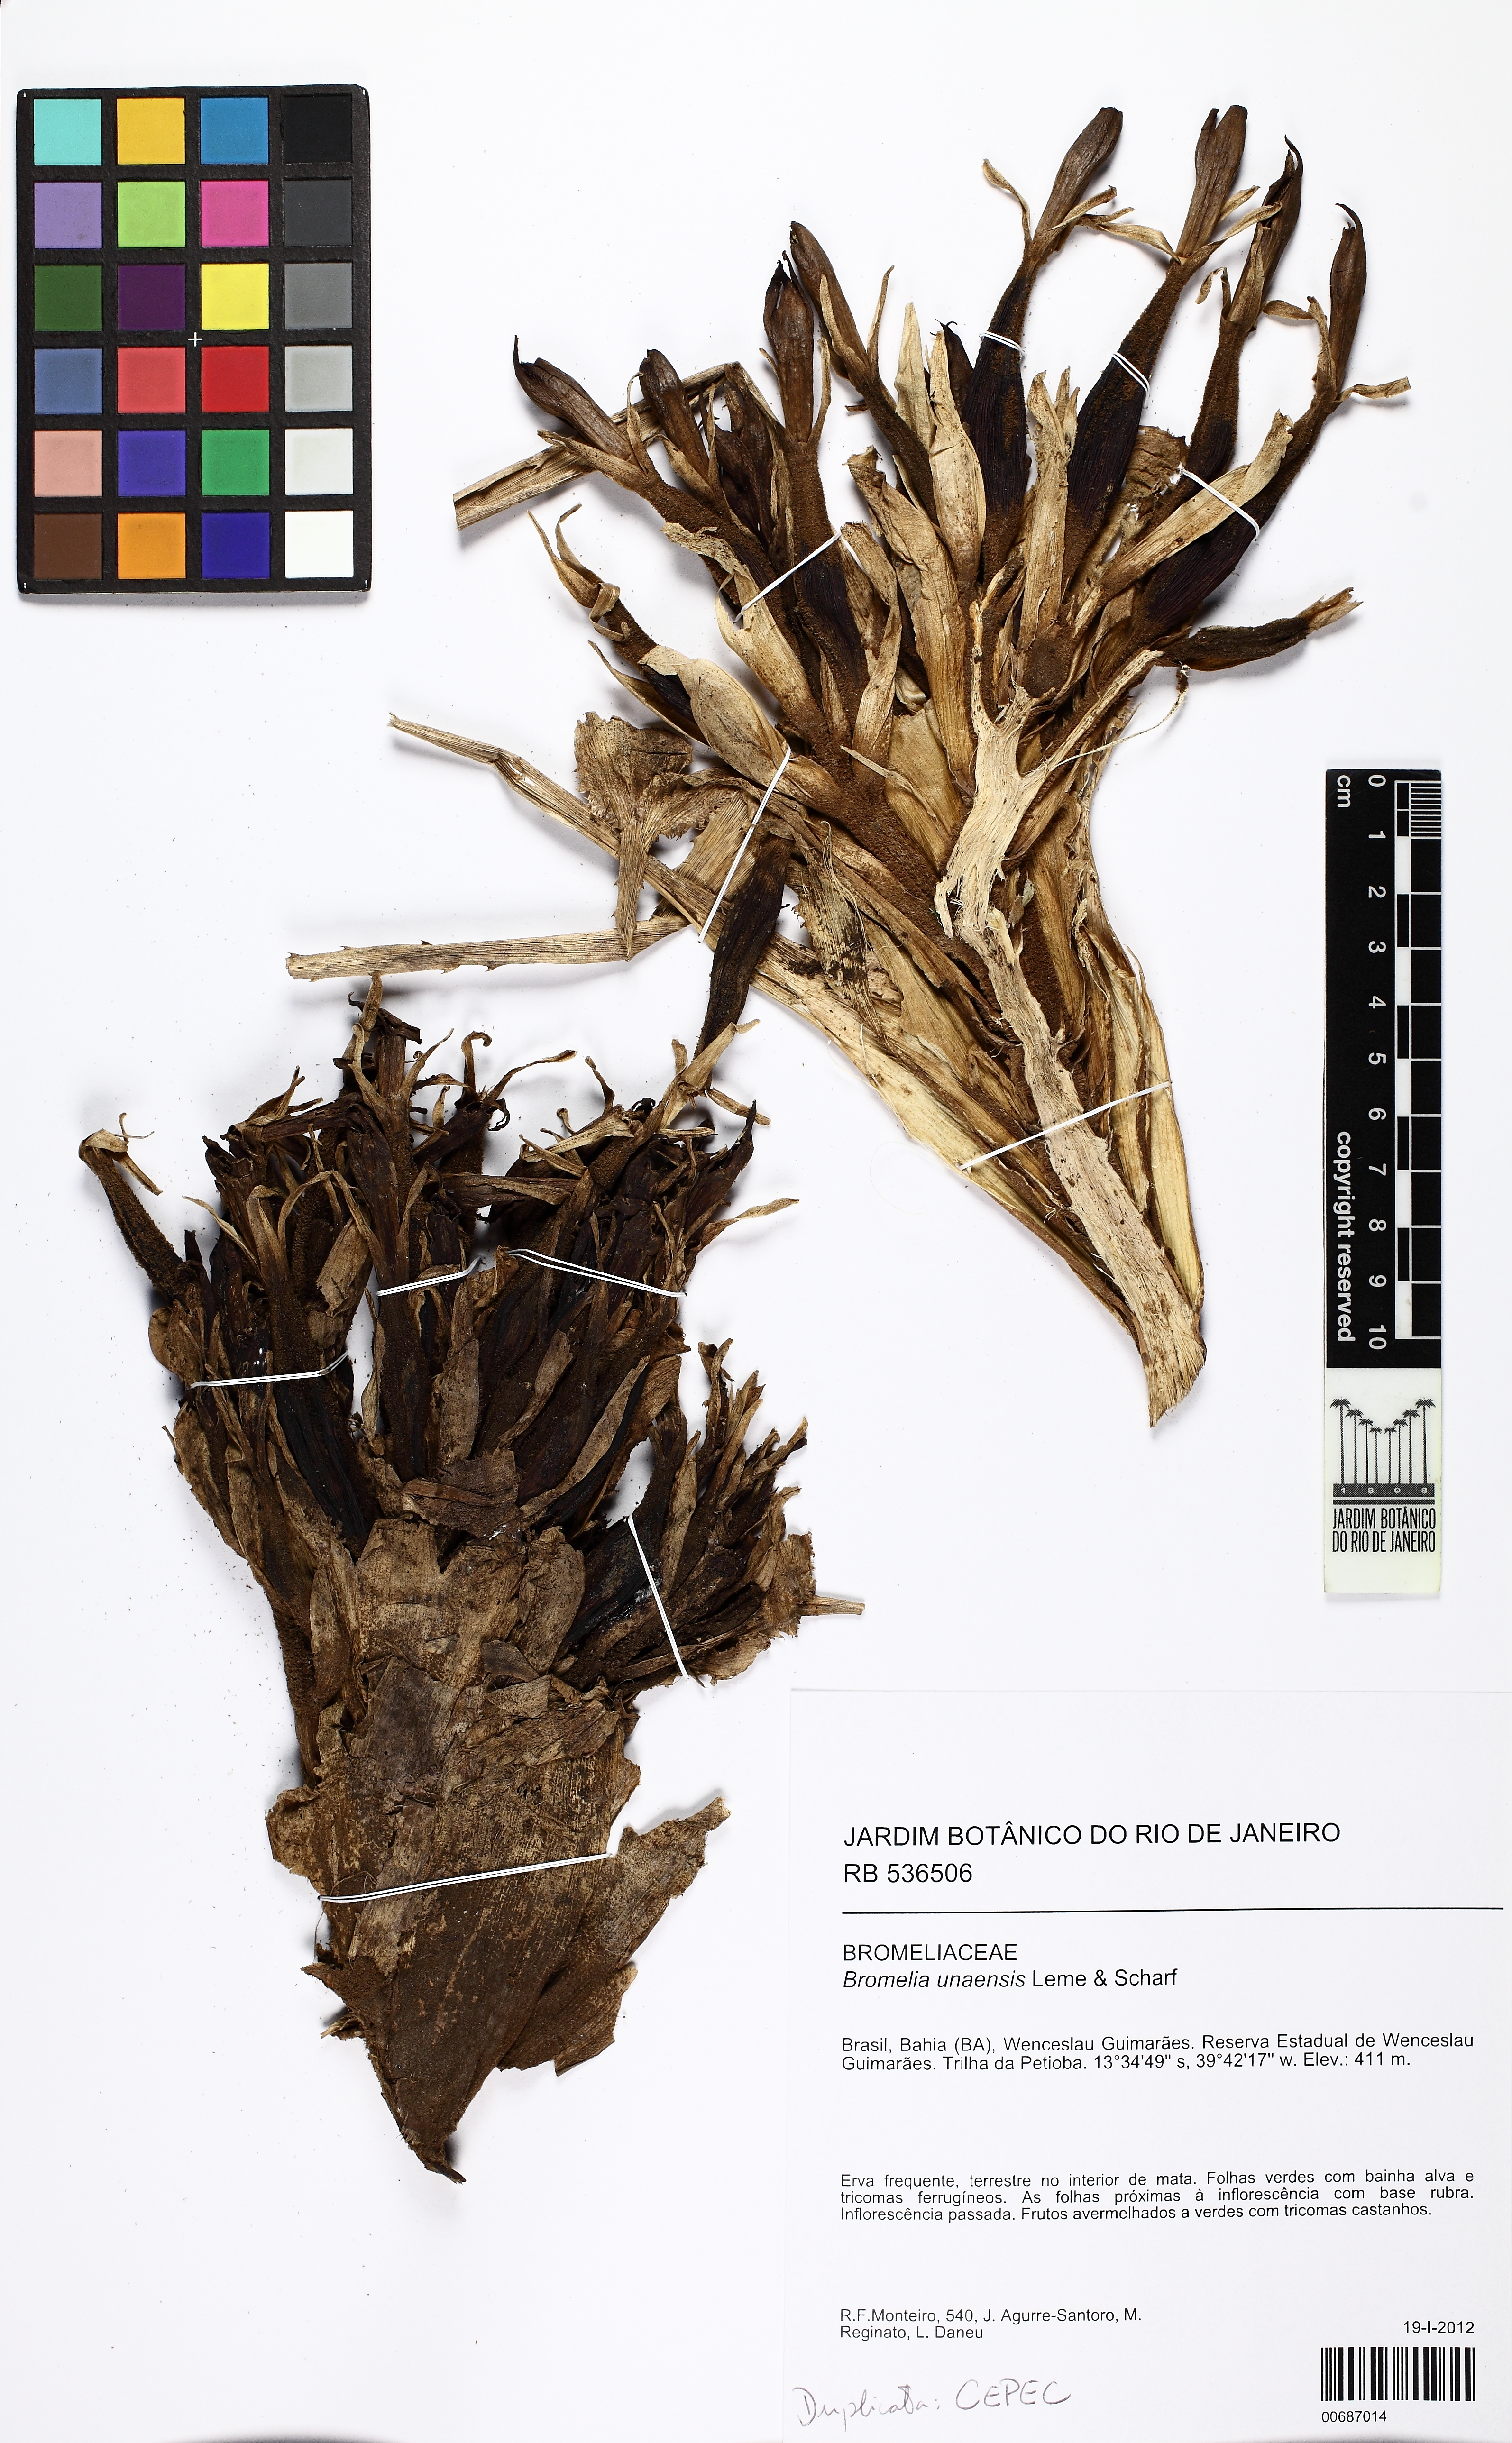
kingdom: Plantae
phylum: Tracheophyta
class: Liliopsida
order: Poales
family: Bromeliaceae
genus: Bromelia
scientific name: Bromelia unaensis
